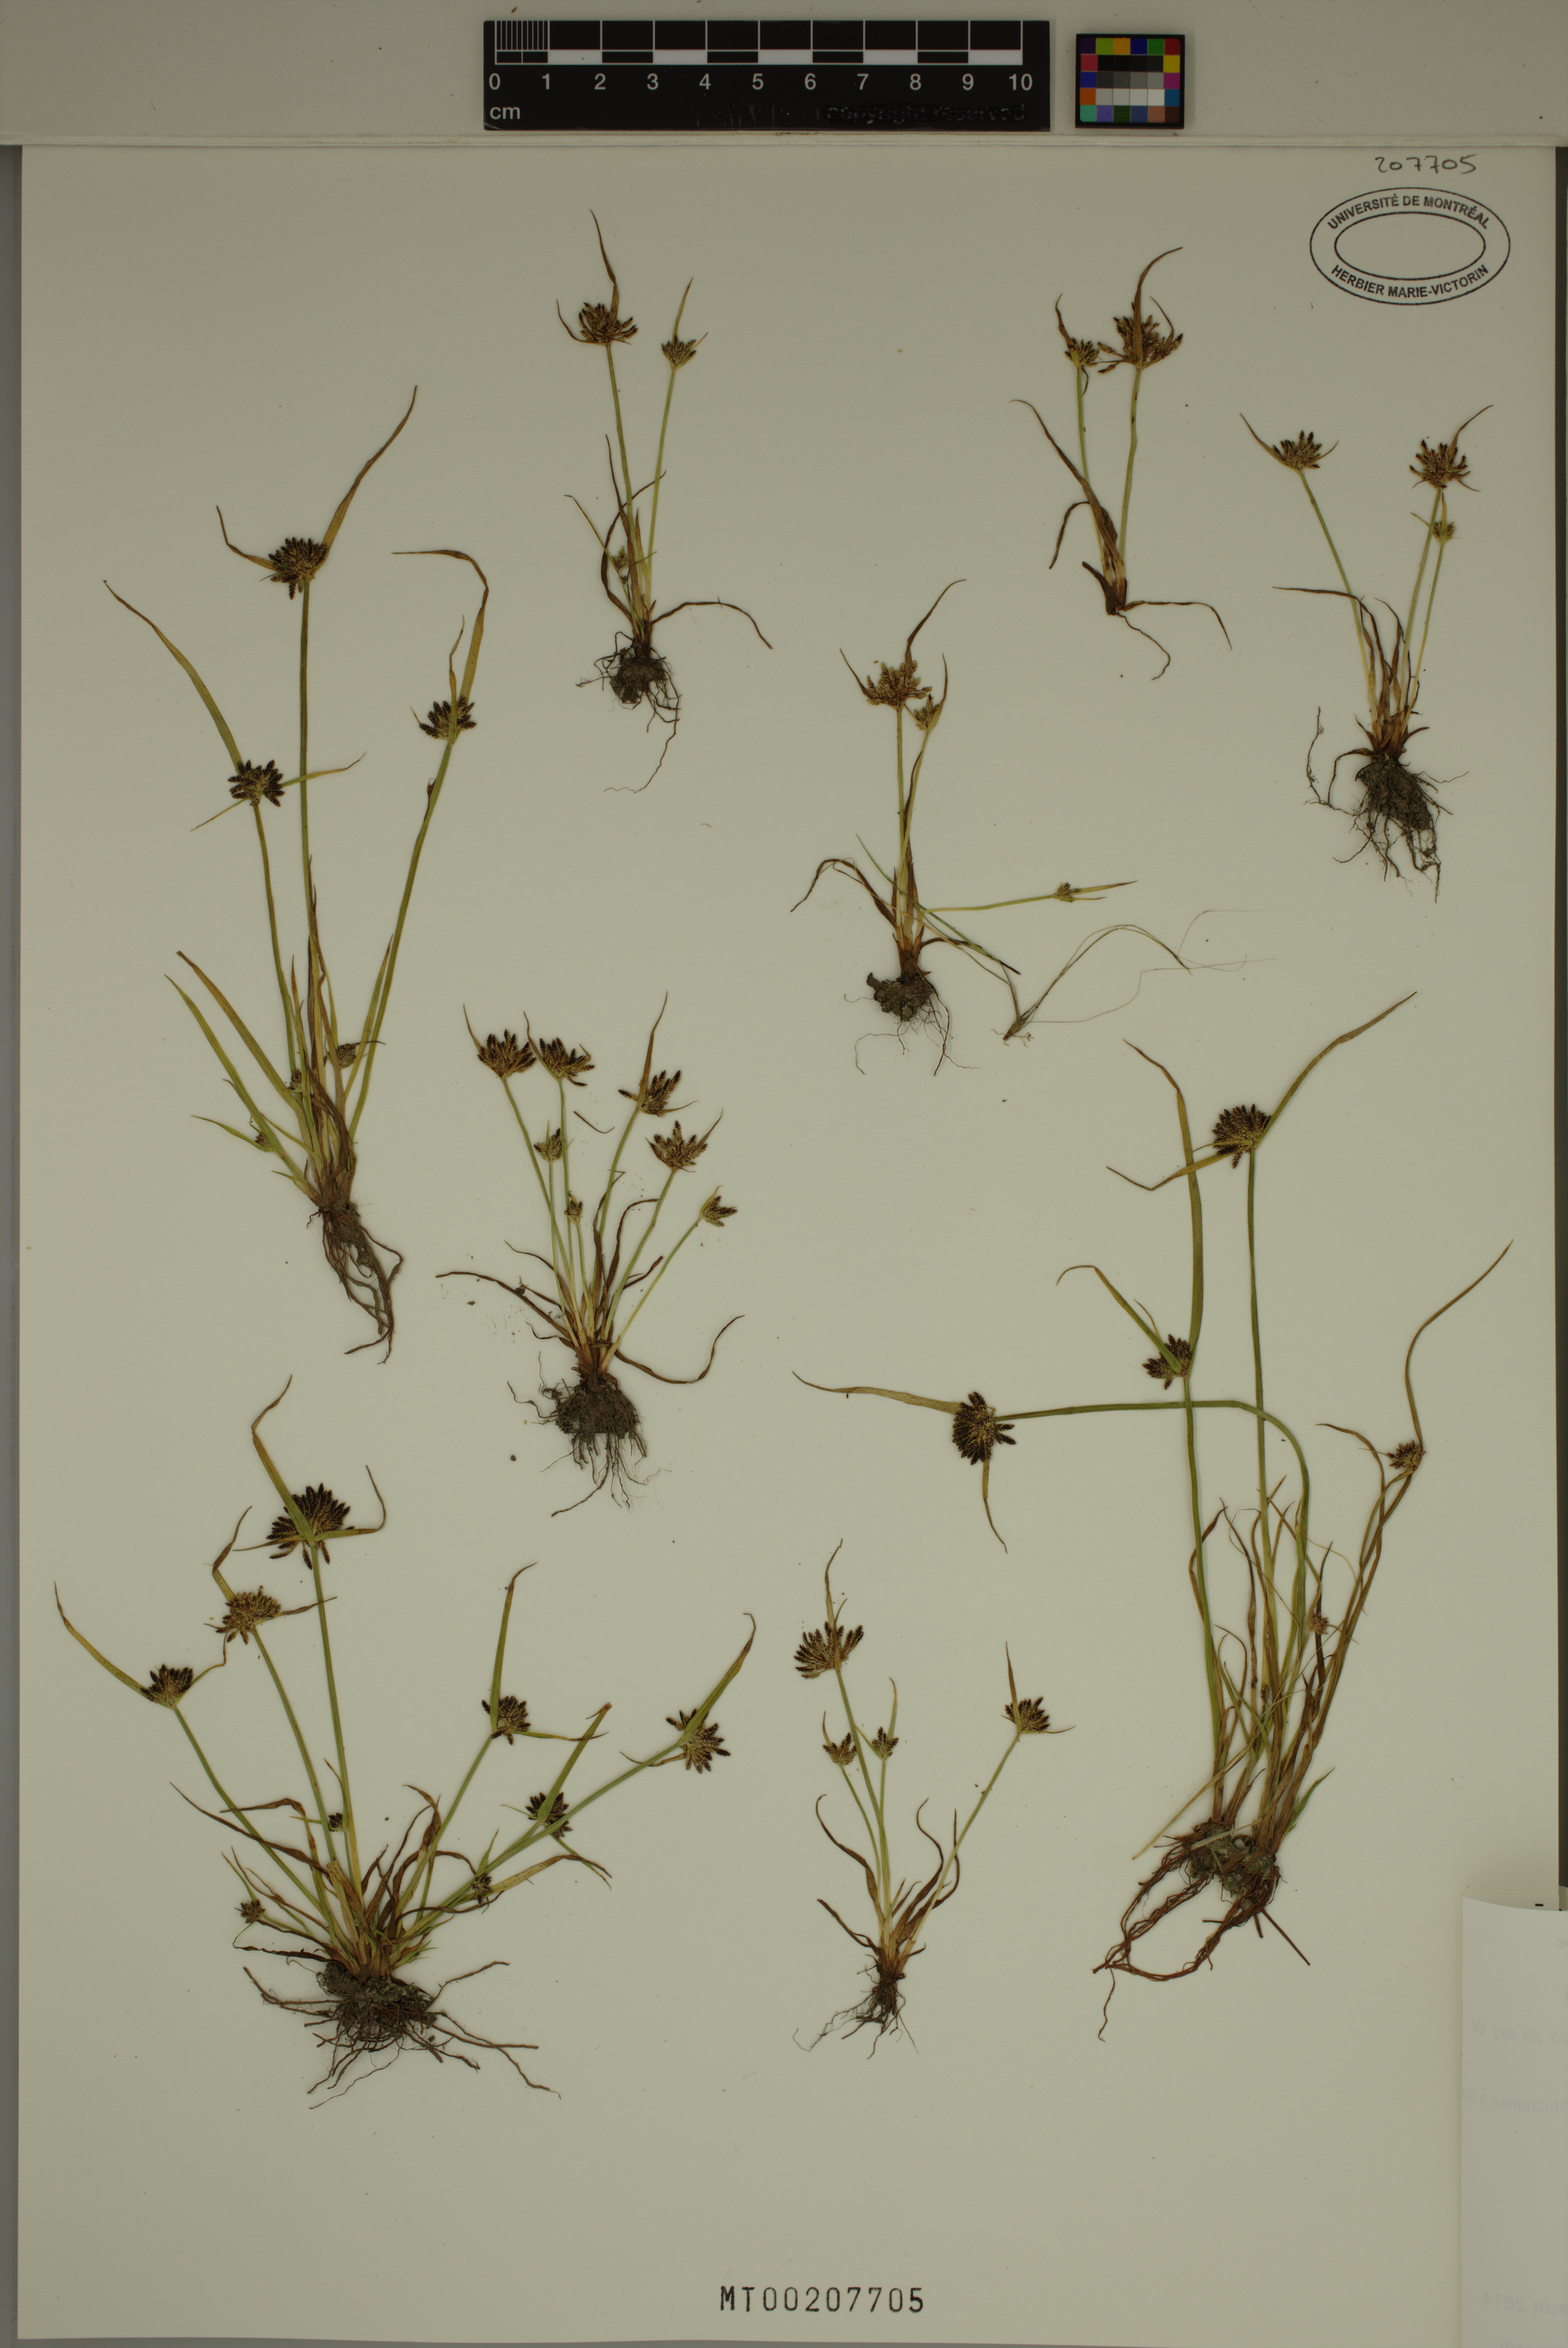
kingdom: Plantae
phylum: Tracheophyta
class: Liliopsida
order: Poales
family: Cyperaceae
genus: Cyperus
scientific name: Cyperus fuscus
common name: Brown galingale
